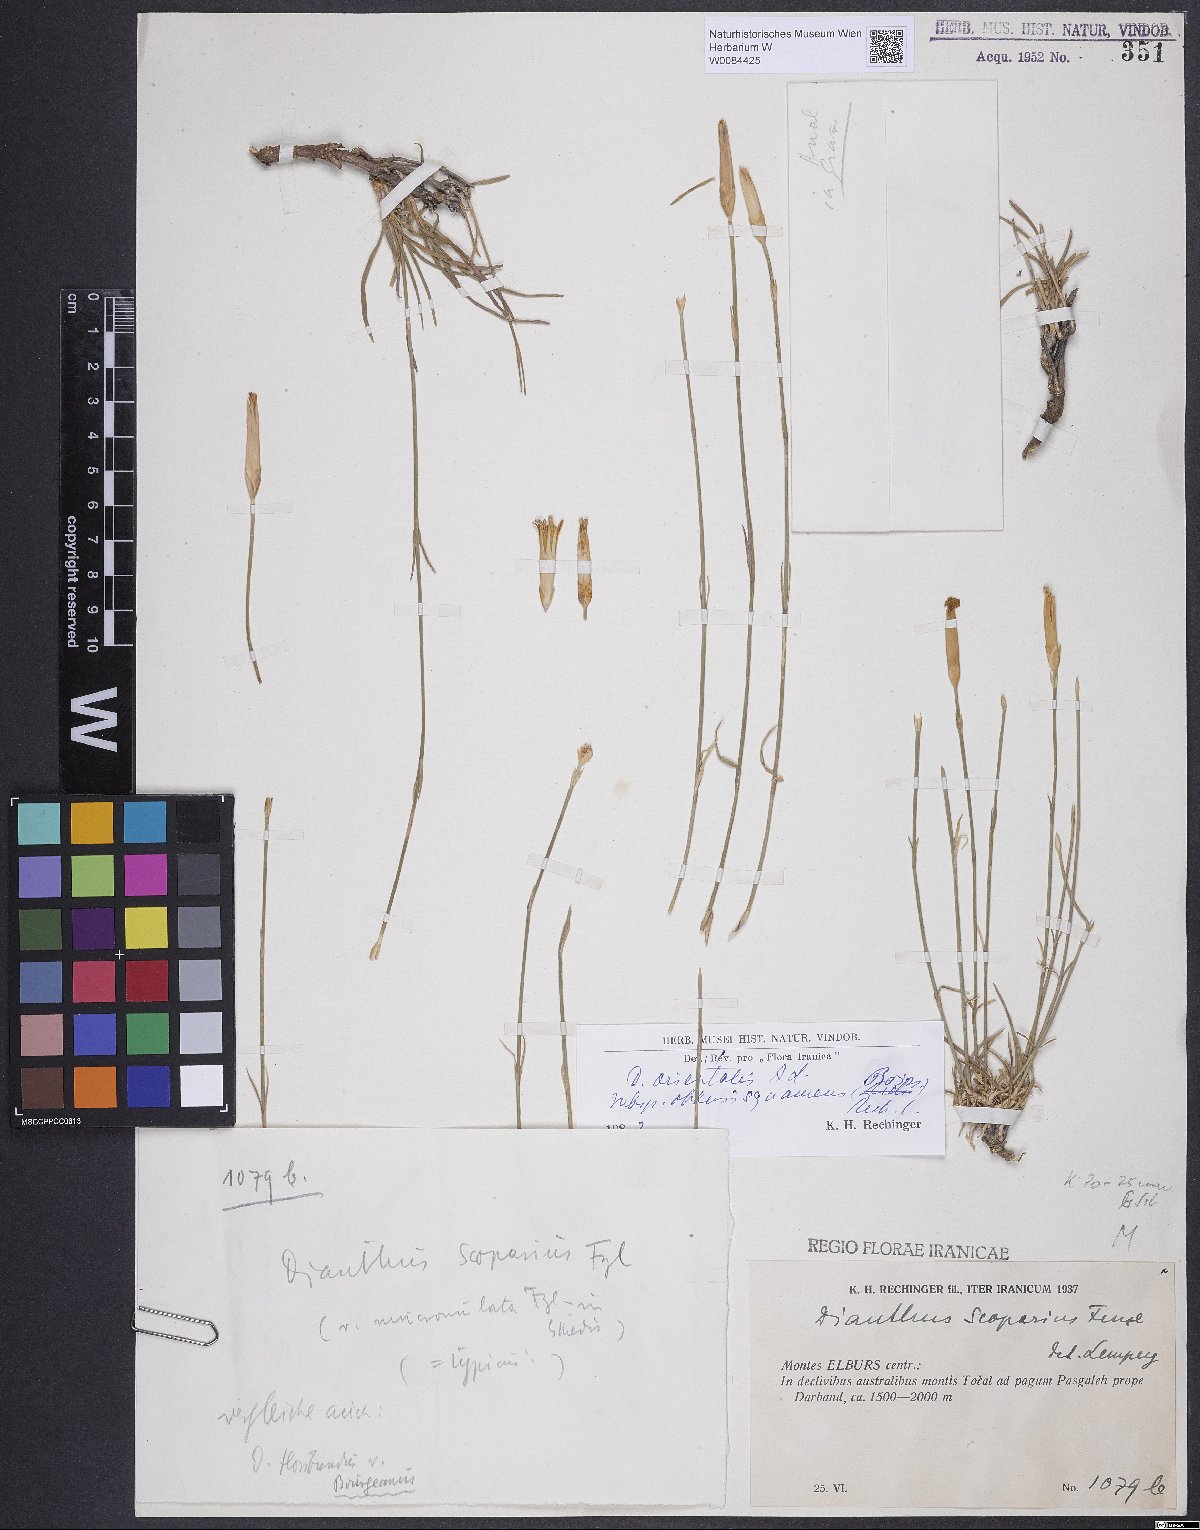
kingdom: Plantae
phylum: Tracheophyta
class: Magnoliopsida
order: Caryophyllales
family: Caryophyllaceae
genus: Dianthus
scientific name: Dianthus orientalis
